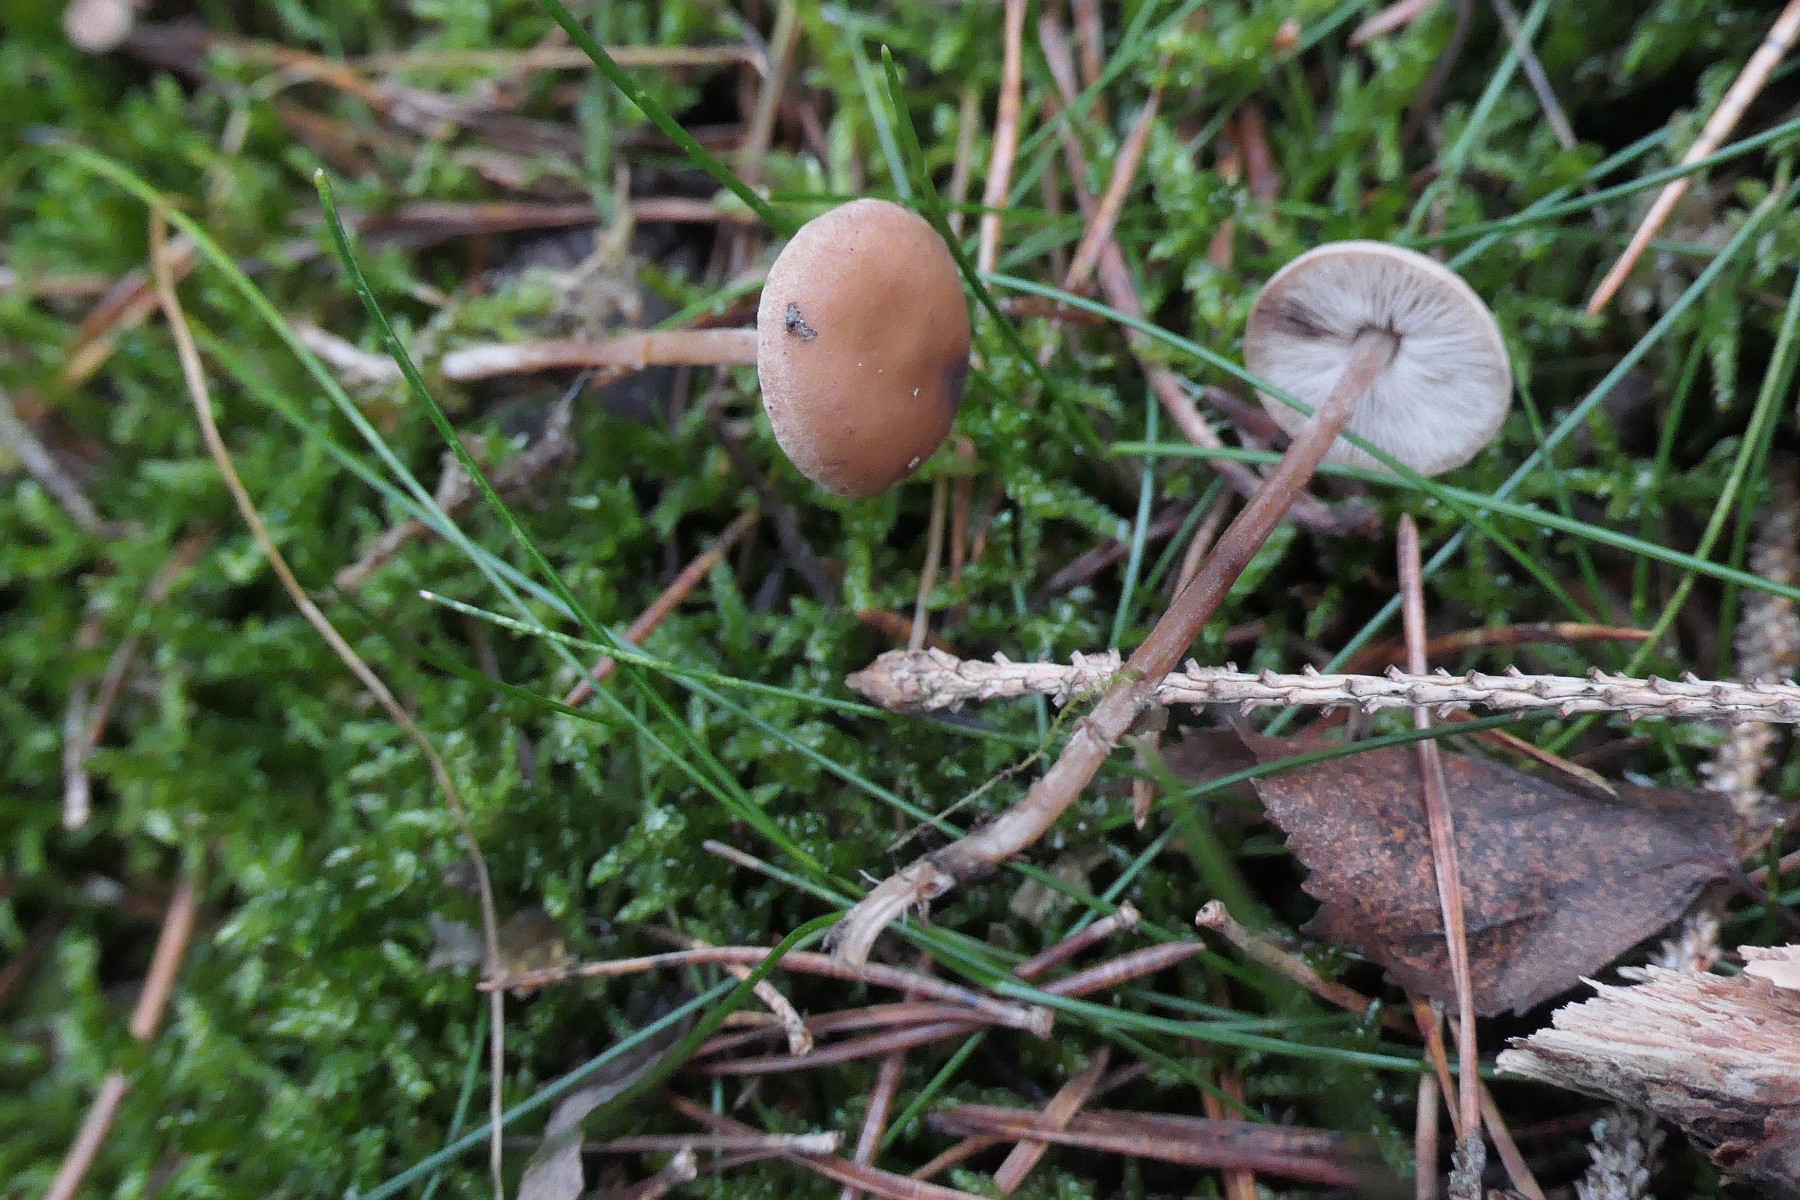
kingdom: Fungi
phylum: Basidiomycota
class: Agaricomycetes
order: Agaricales
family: Marasmiaceae
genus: Baeospora
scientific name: Baeospora myosura
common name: koglebruskhat
